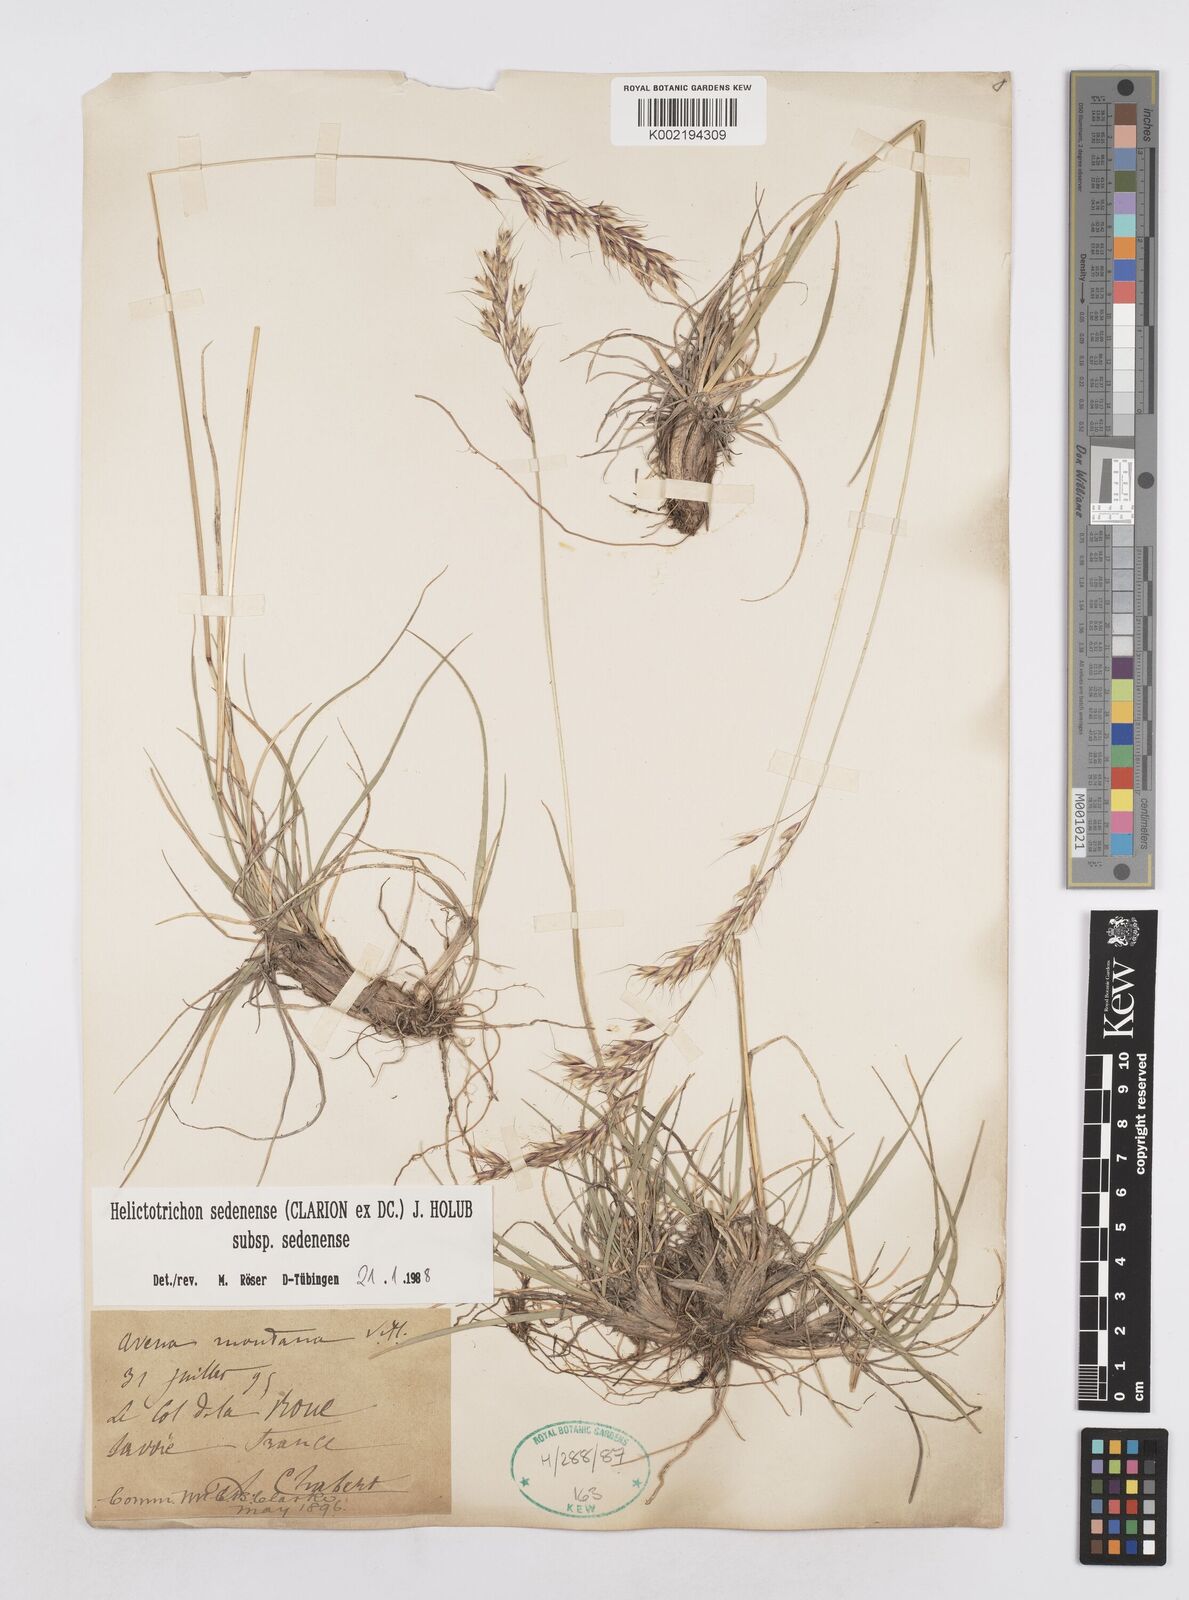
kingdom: Plantae
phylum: Tracheophyta
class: Liliopsida
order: Poales
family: Poaceae
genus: Helictotrichon
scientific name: Helictotrichon sedenense
